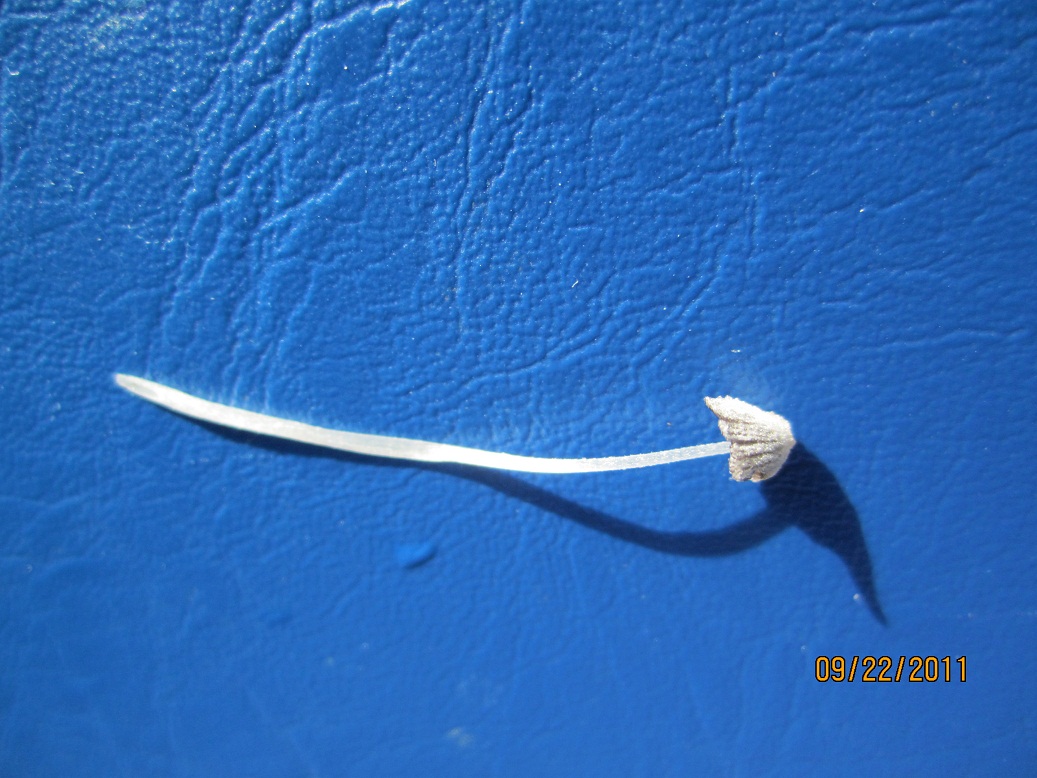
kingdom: Fungi
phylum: Basidiomycota
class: Agaricomycetes
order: Agaricales
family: Psathyrellaceae
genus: Coprinopsis
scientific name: Coprinopsis narcotica
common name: latrin-blækhat
